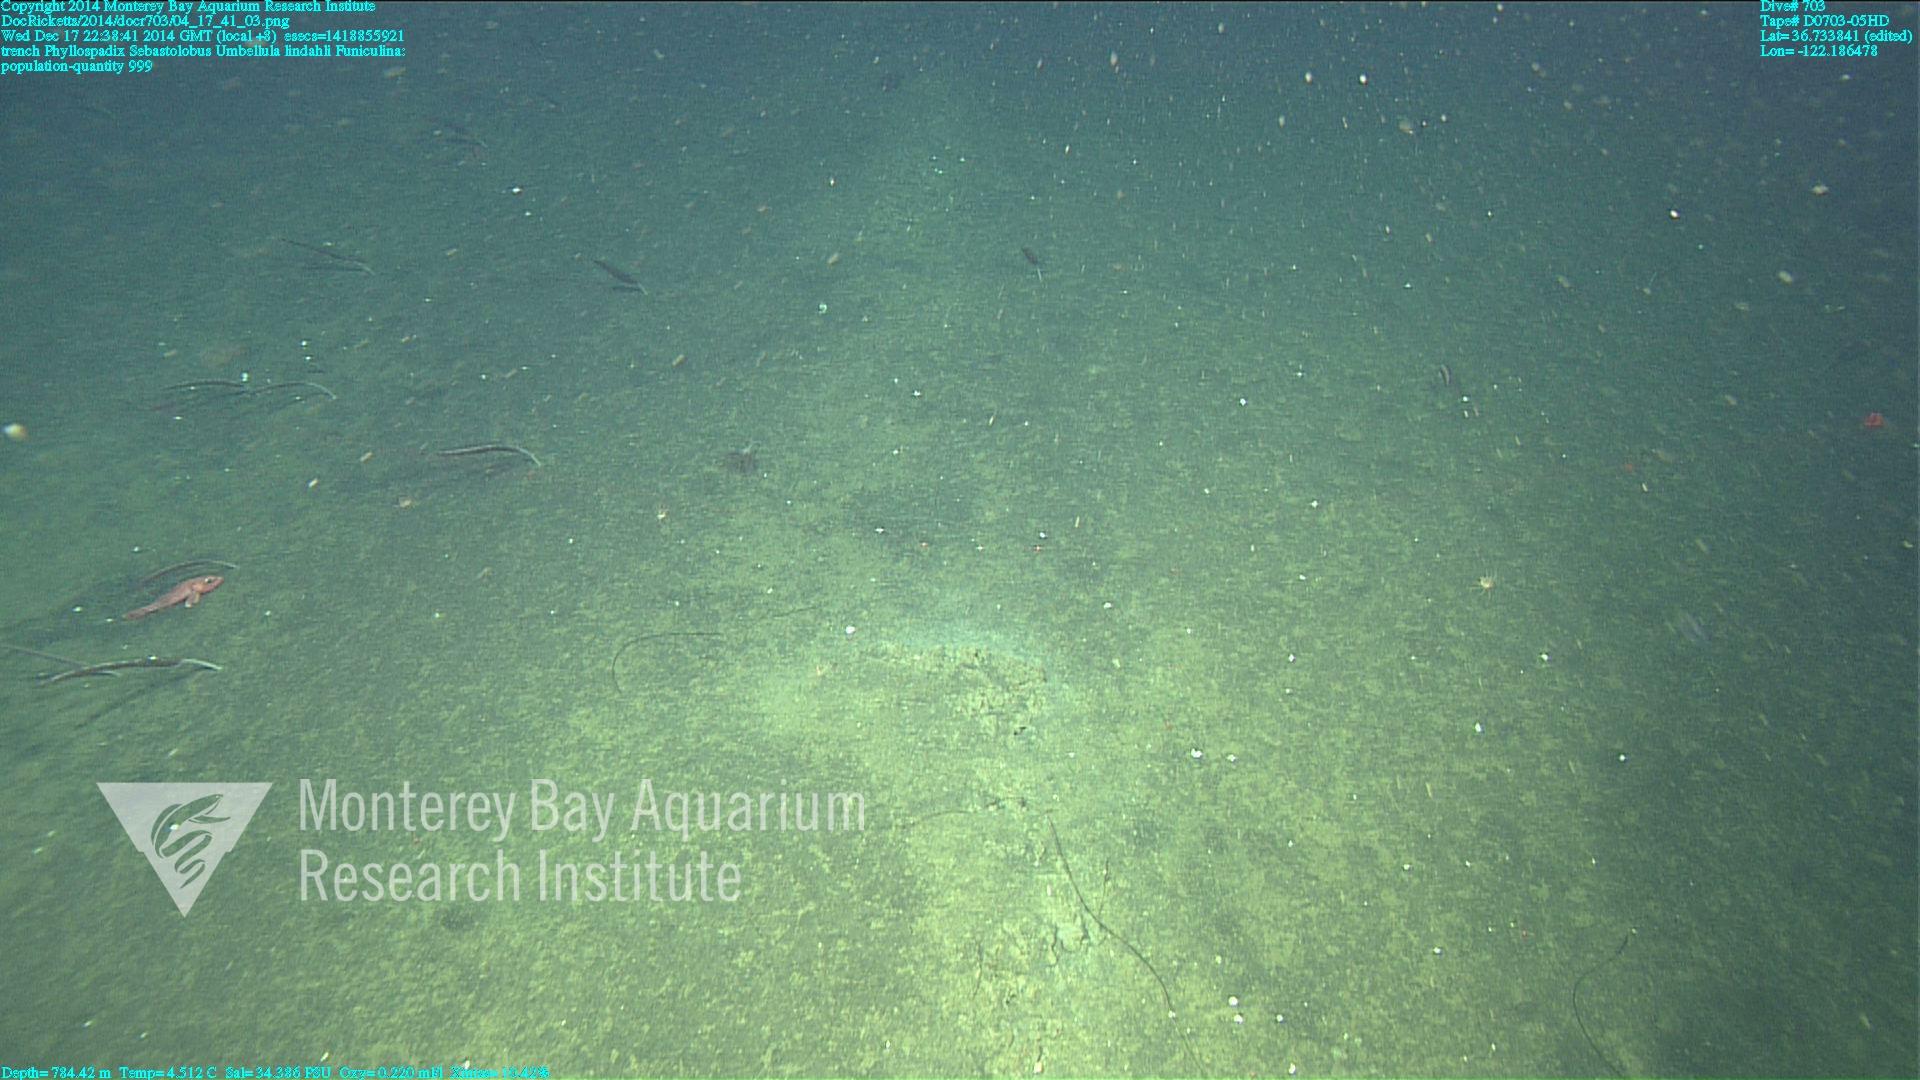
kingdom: Animalia
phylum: Cnidaria
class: Anthozoa
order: Scleralcyonacea
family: Funiculinidae
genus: Funiculina
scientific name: Funiculina
